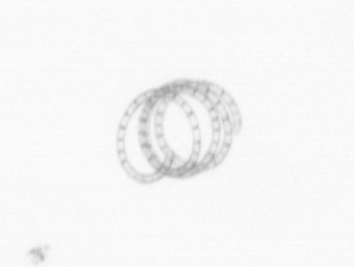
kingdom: Chromista
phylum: Ochrophyta
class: Bacillariophyceae
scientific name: Bacillariophyceae
